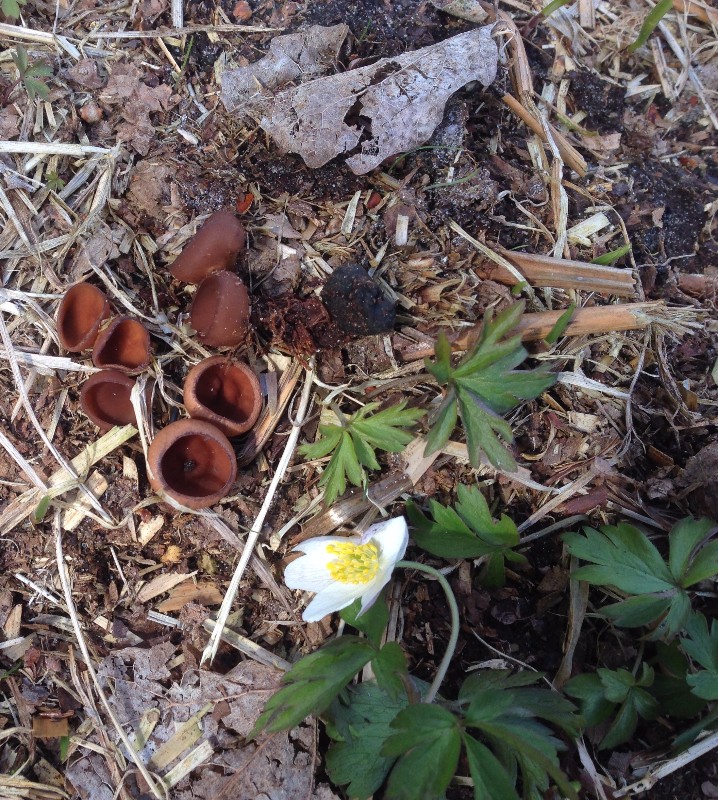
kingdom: Fungi
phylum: Ascomycota
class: Leotiomycetes
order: Helotiales
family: Sclerotiniaceae
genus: Dumontinia
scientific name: Dumontinia tuberosa
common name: anemone-knoldskive
